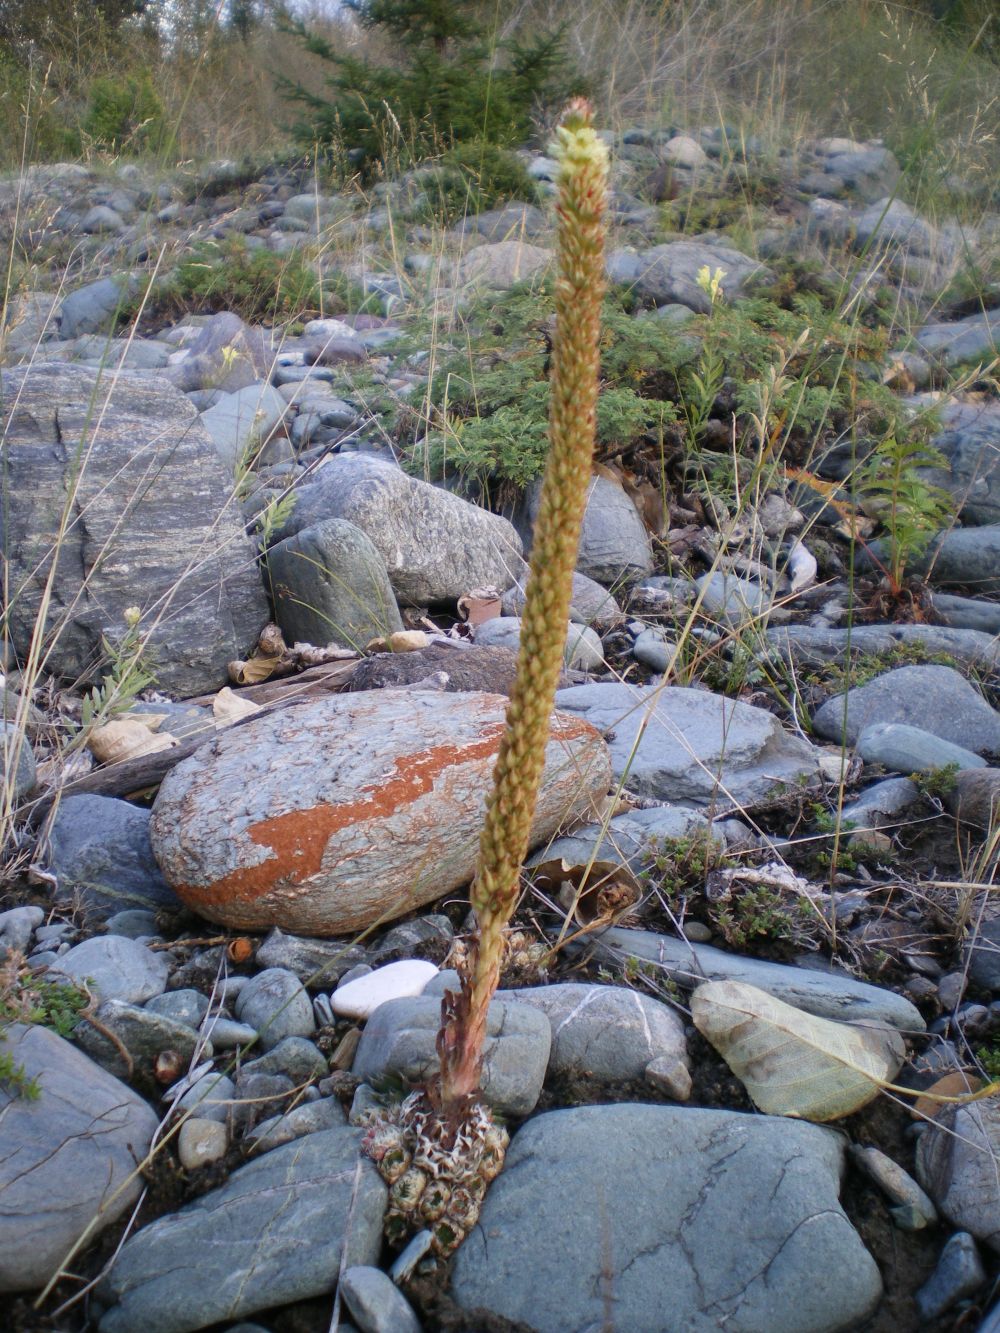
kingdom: Plantae
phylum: Tracheophyta
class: Magnoliopsida
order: Saxifragales
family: Crassulaceae
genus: Orostachys
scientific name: Orostachys spinosa
